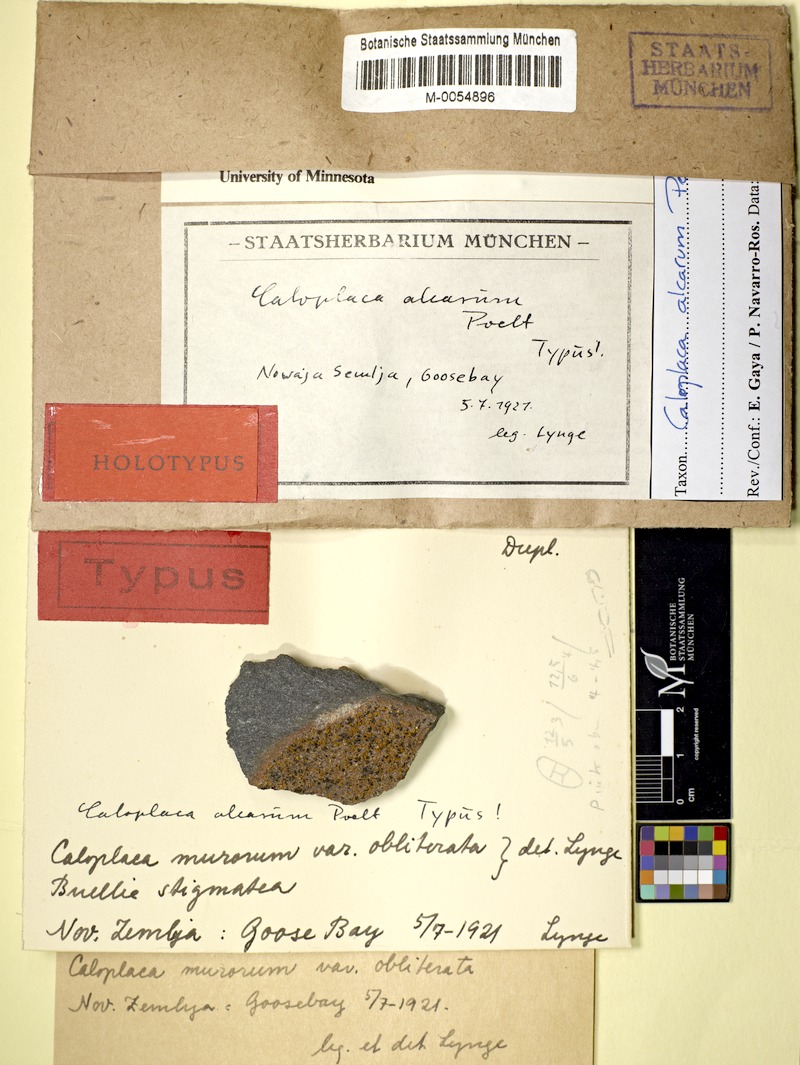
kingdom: Fungi
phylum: Ascomycota
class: Lecanoromycetes
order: Teloschistales
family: Teloschistaceae
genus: Athallia
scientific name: Athallia holocarpa
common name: Firedot lichen
